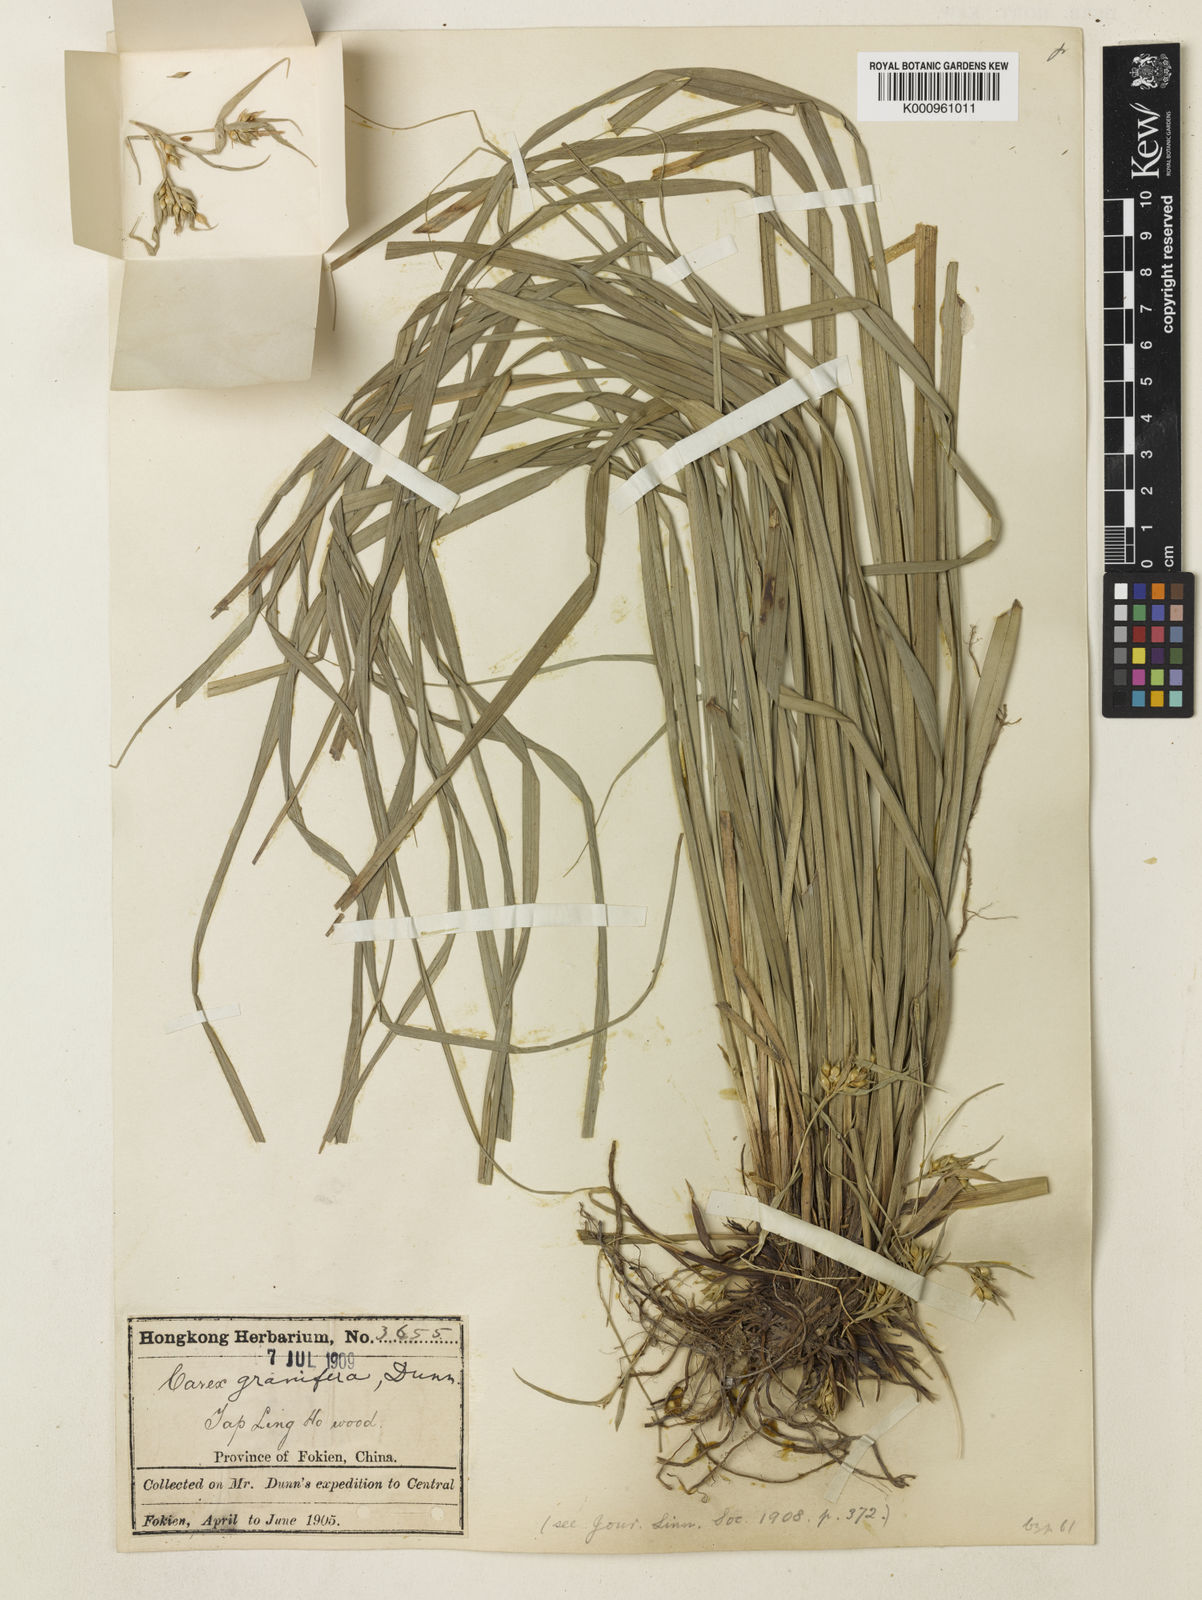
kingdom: Plantae
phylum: Tracheophyta
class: Liliopsida
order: Poales
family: Cyperaceae
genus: Carex
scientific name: Carex blinii
